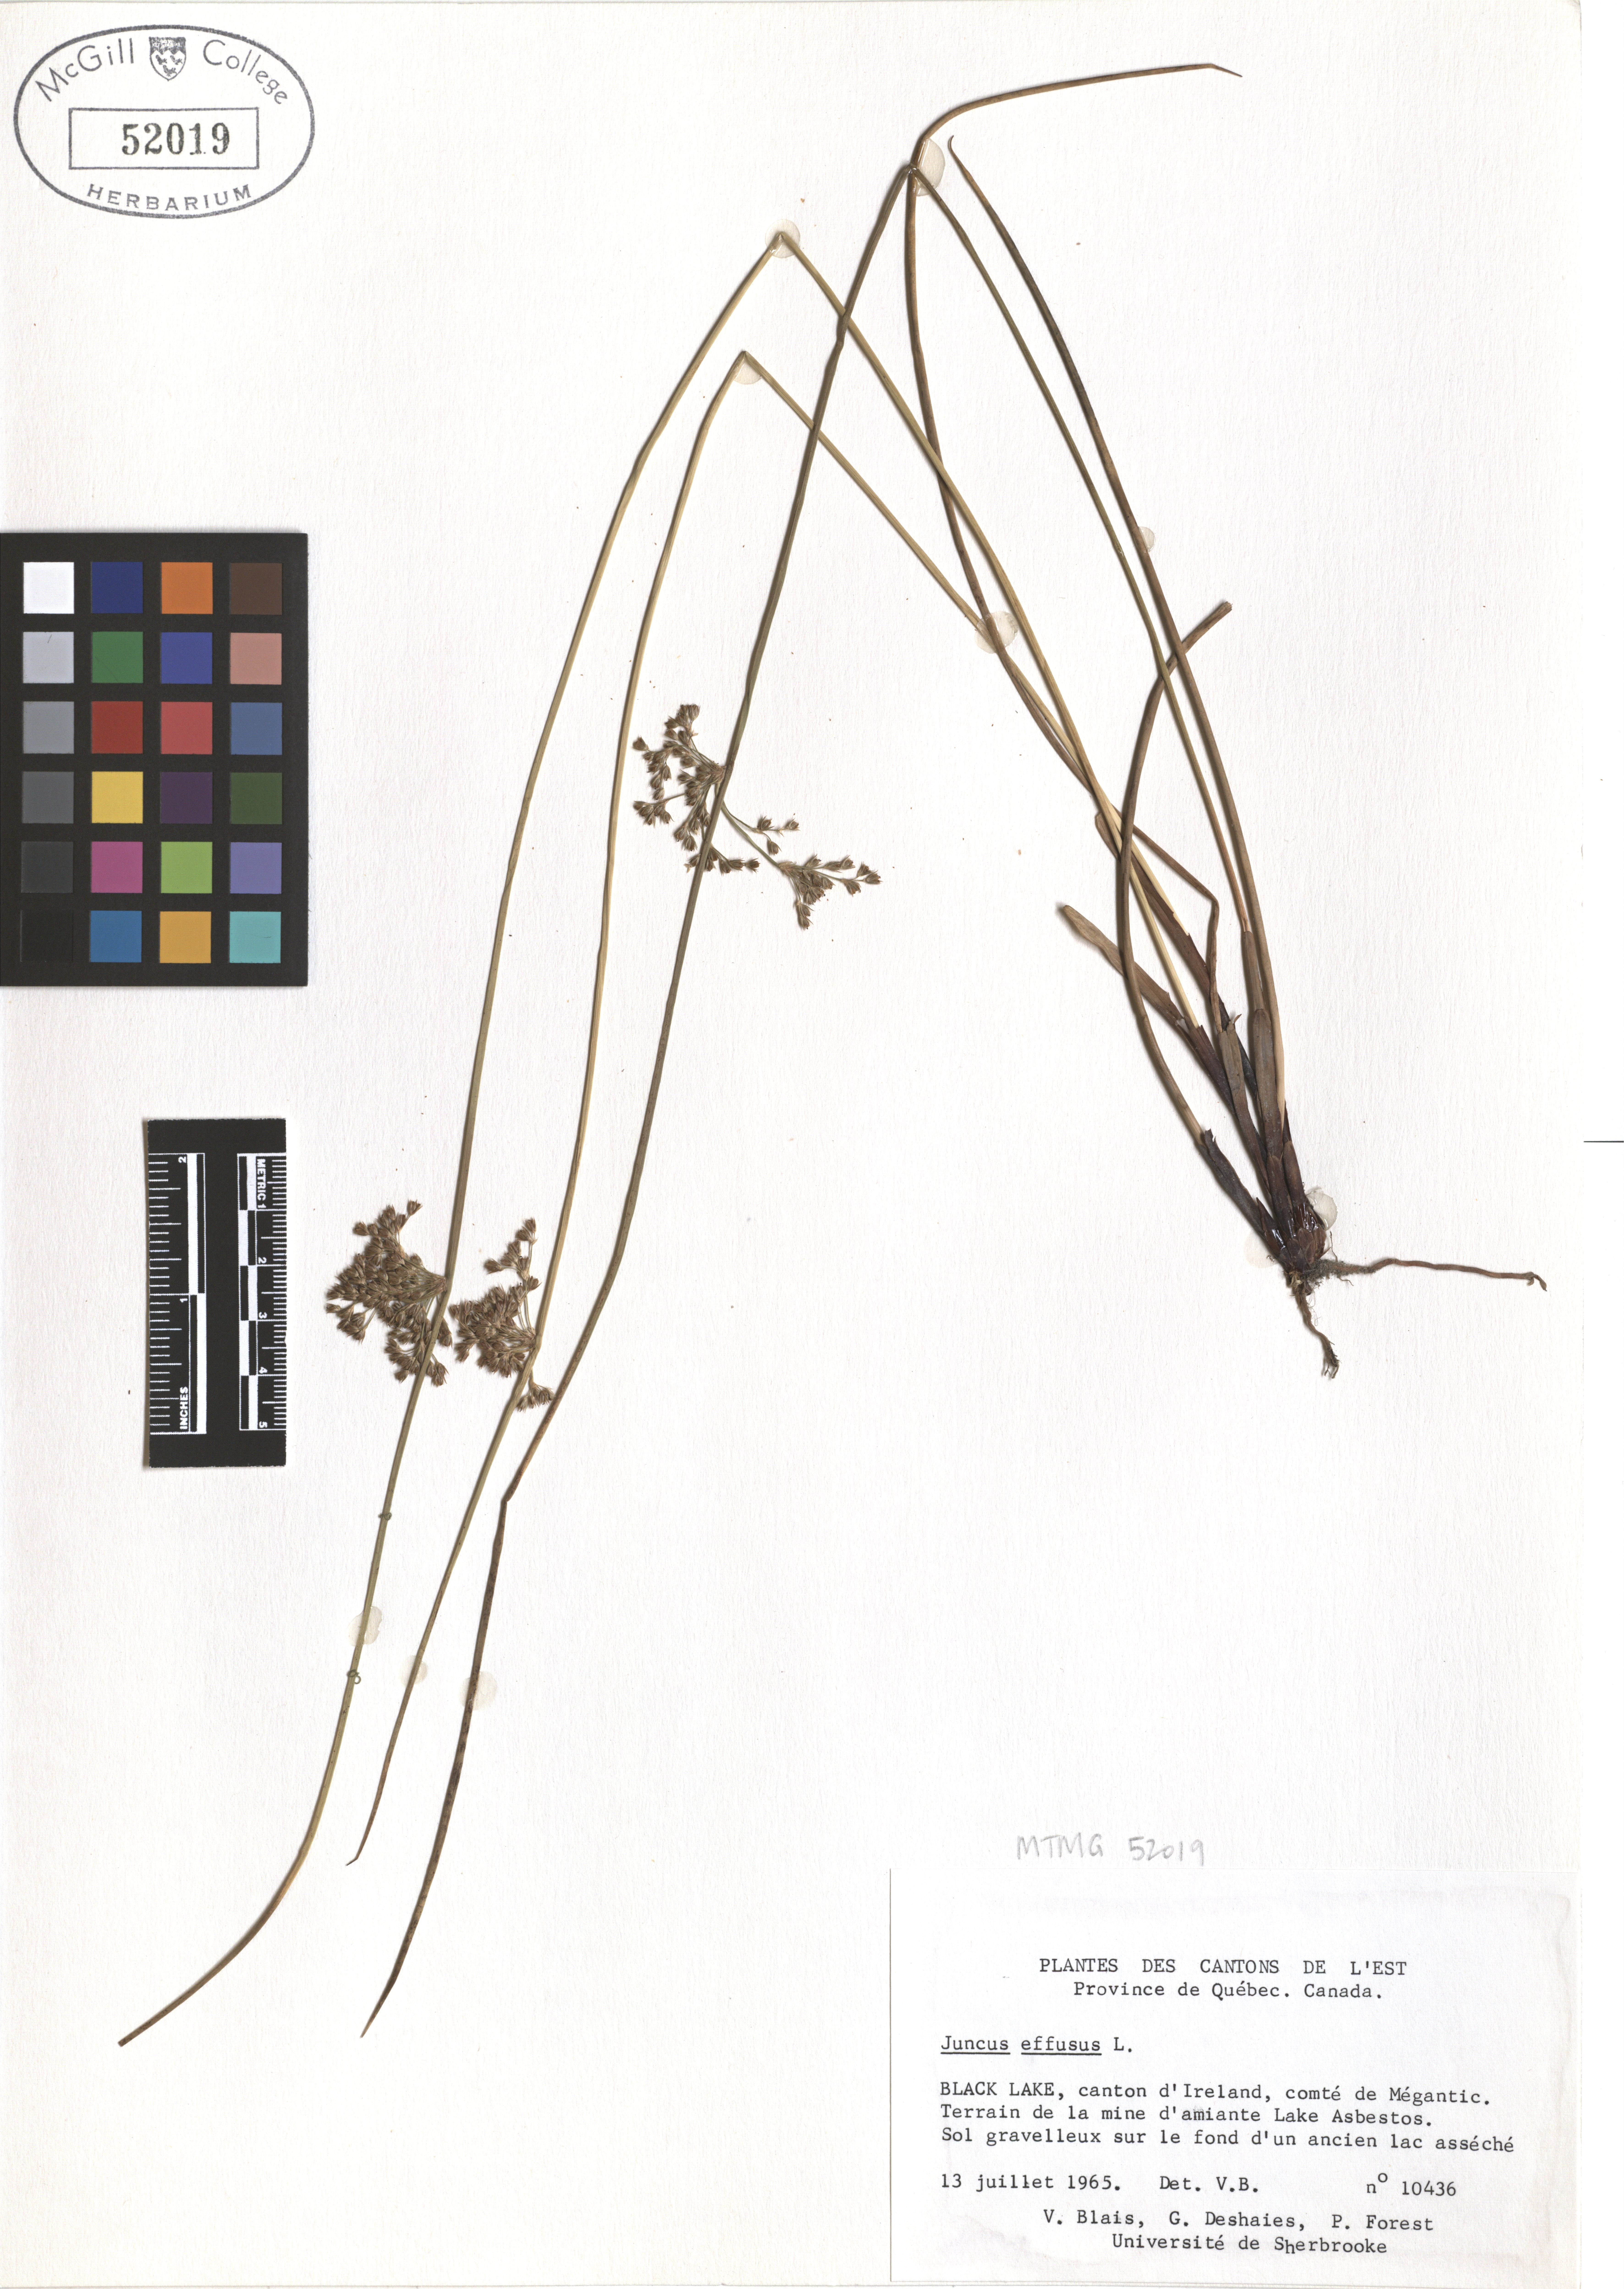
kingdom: Plantae
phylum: Tracheophyta
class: Liliopsida
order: Poales
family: Juncaceae
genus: Juncus
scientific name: Juncus effusus
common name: Soft rush
